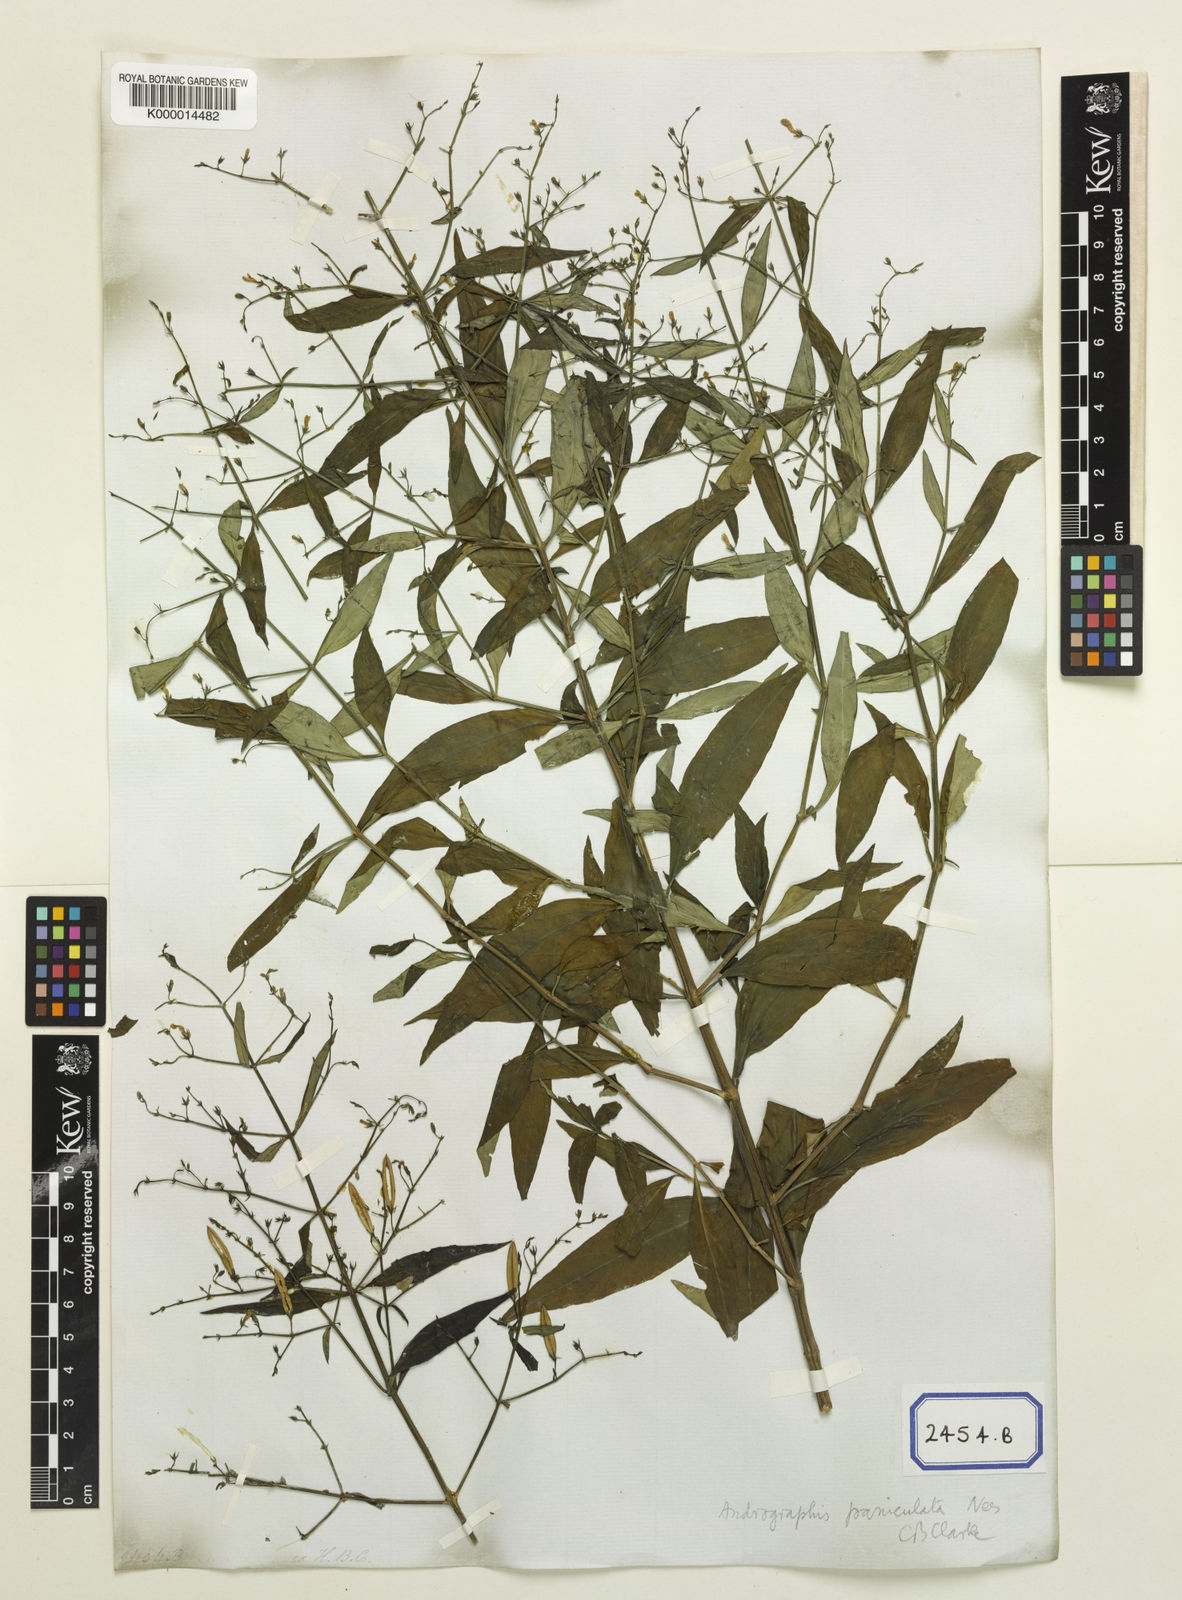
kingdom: Plantae
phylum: Tracheophyta
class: Magnoliopsida
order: Lamiales
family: Acanthaceae
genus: Justicia
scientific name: Justicia
